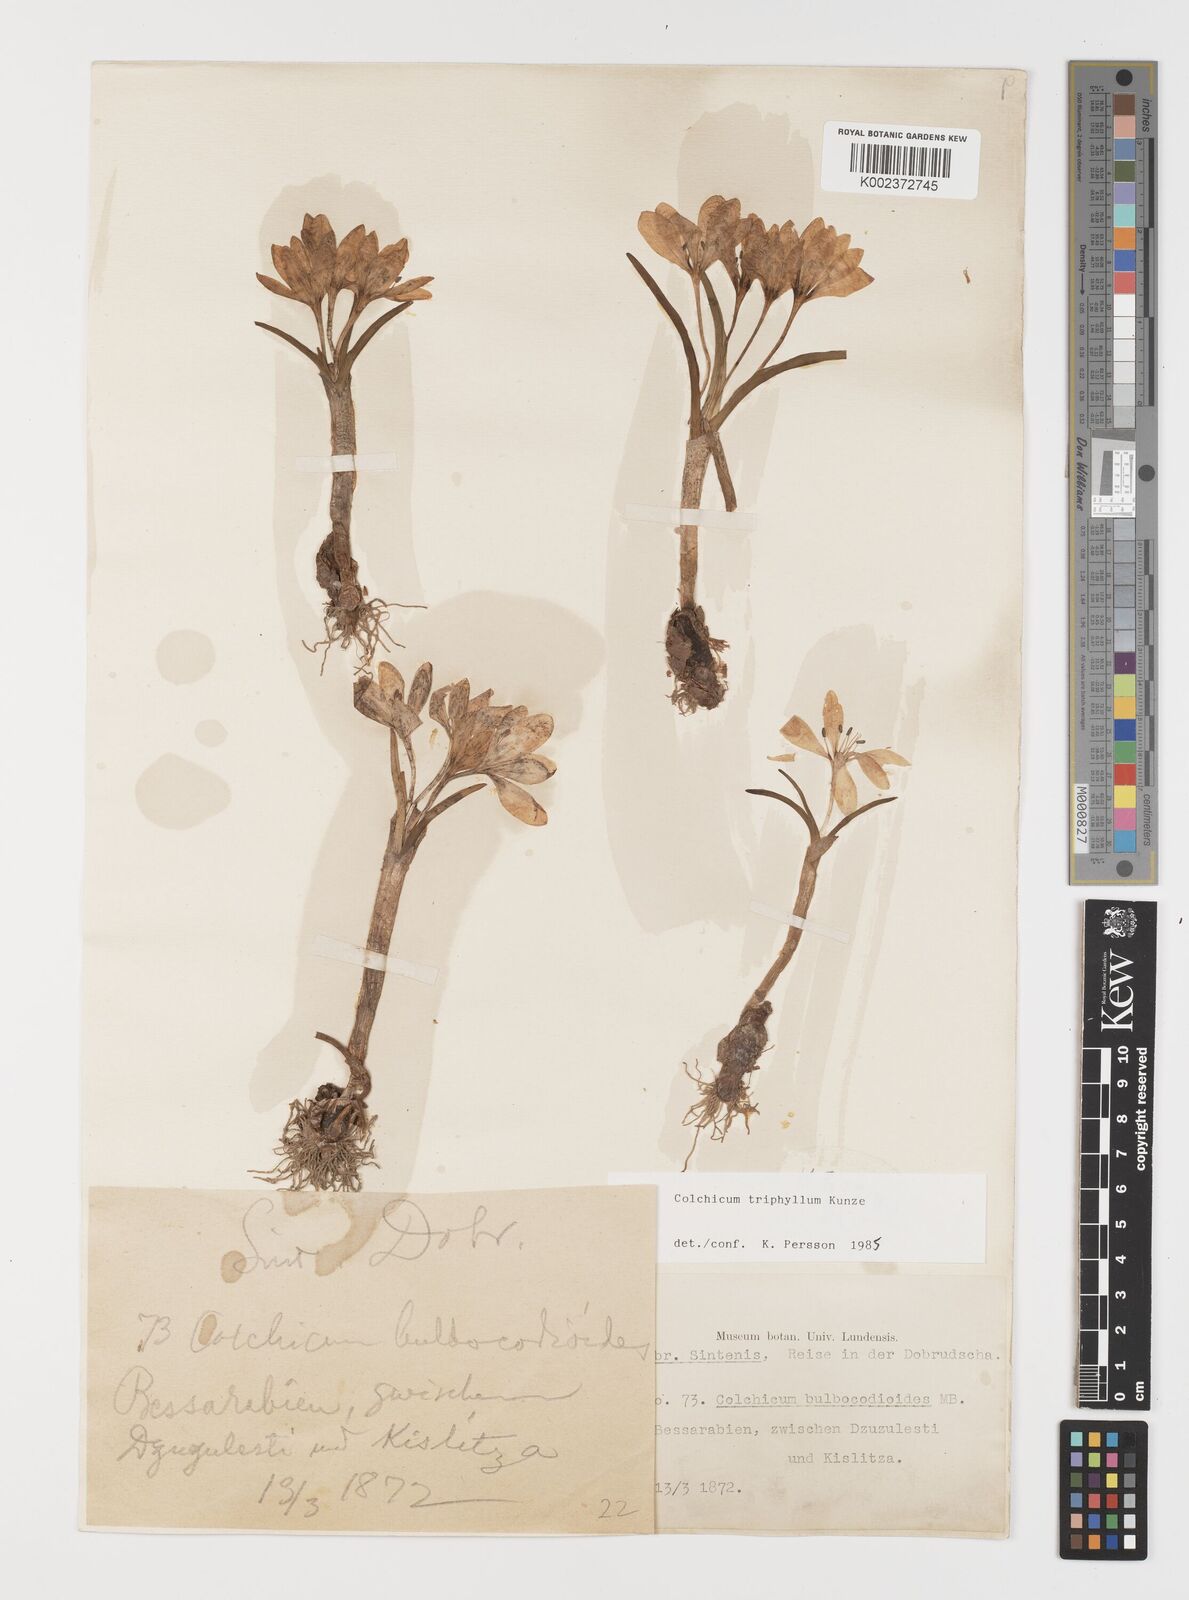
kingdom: Plantae
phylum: Tracheophyta
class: Liliopsida
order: Liliales
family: Colchicaceae
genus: Colchicum
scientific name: Colchicum triphyllum
